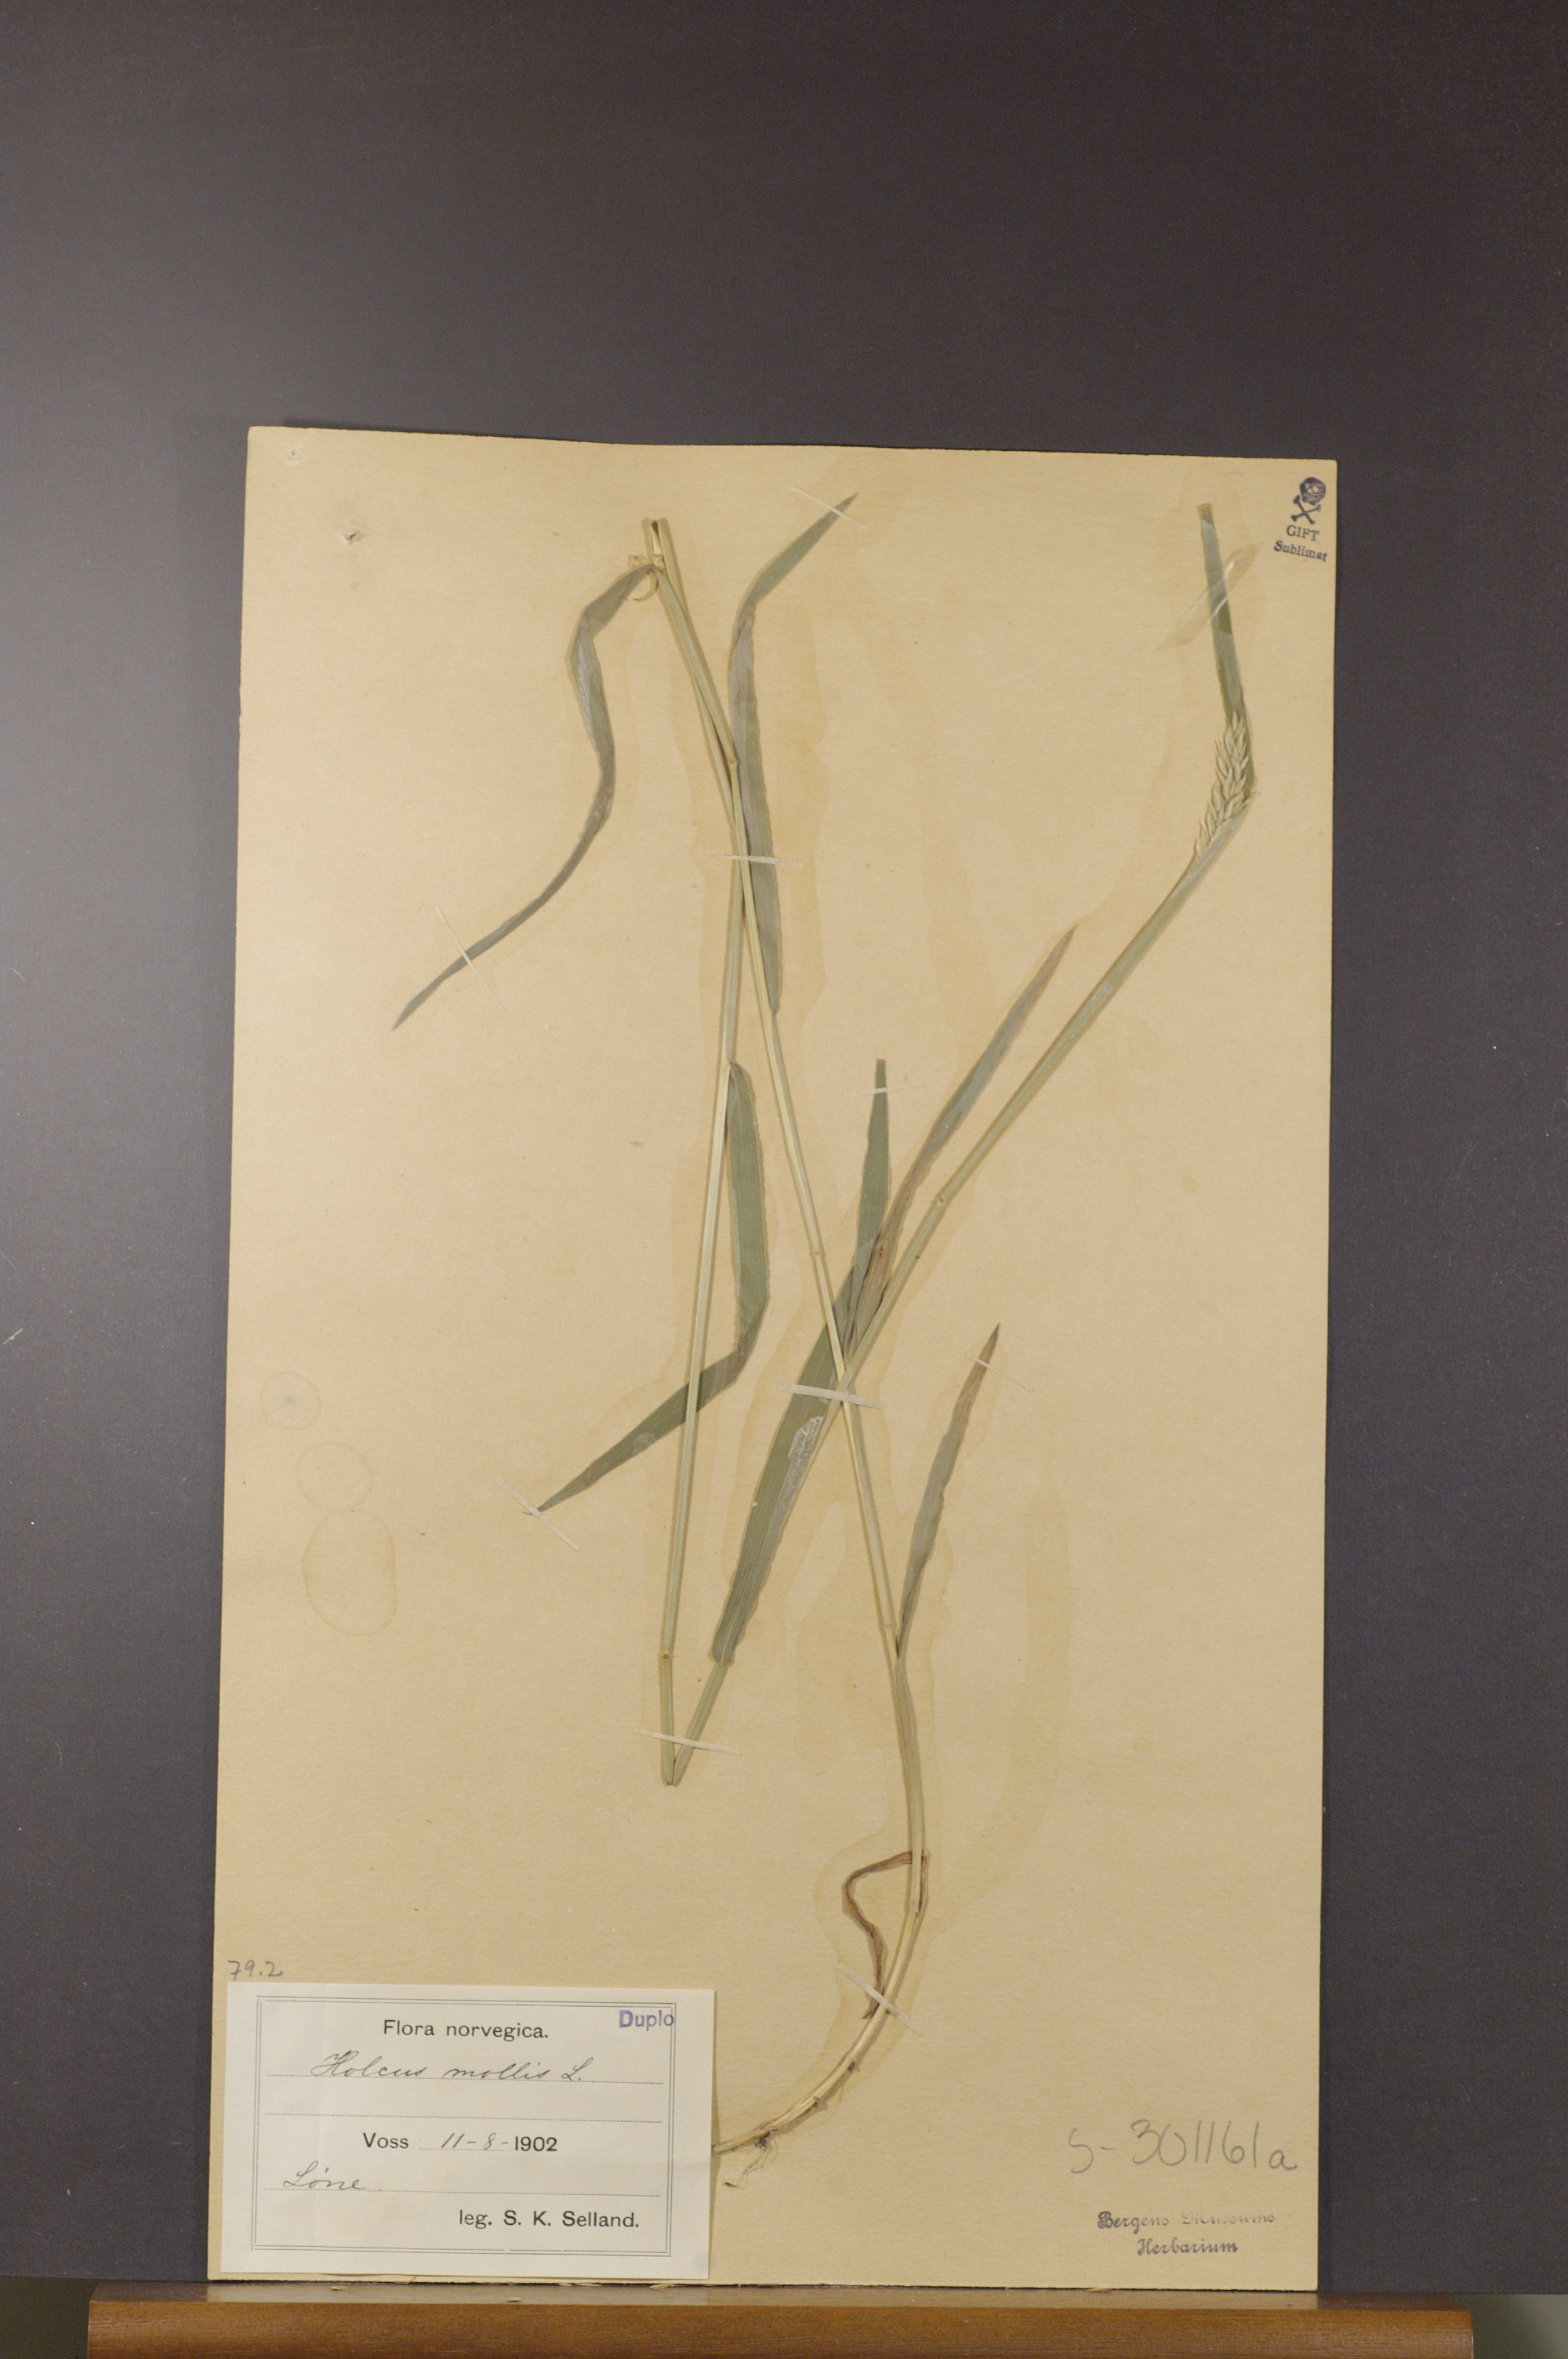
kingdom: Plantae
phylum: Tracheophyta
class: Liliopsida
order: Poales
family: Poaceae
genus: Holcus
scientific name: Holcus mollis
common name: Creeping velvetgrass
